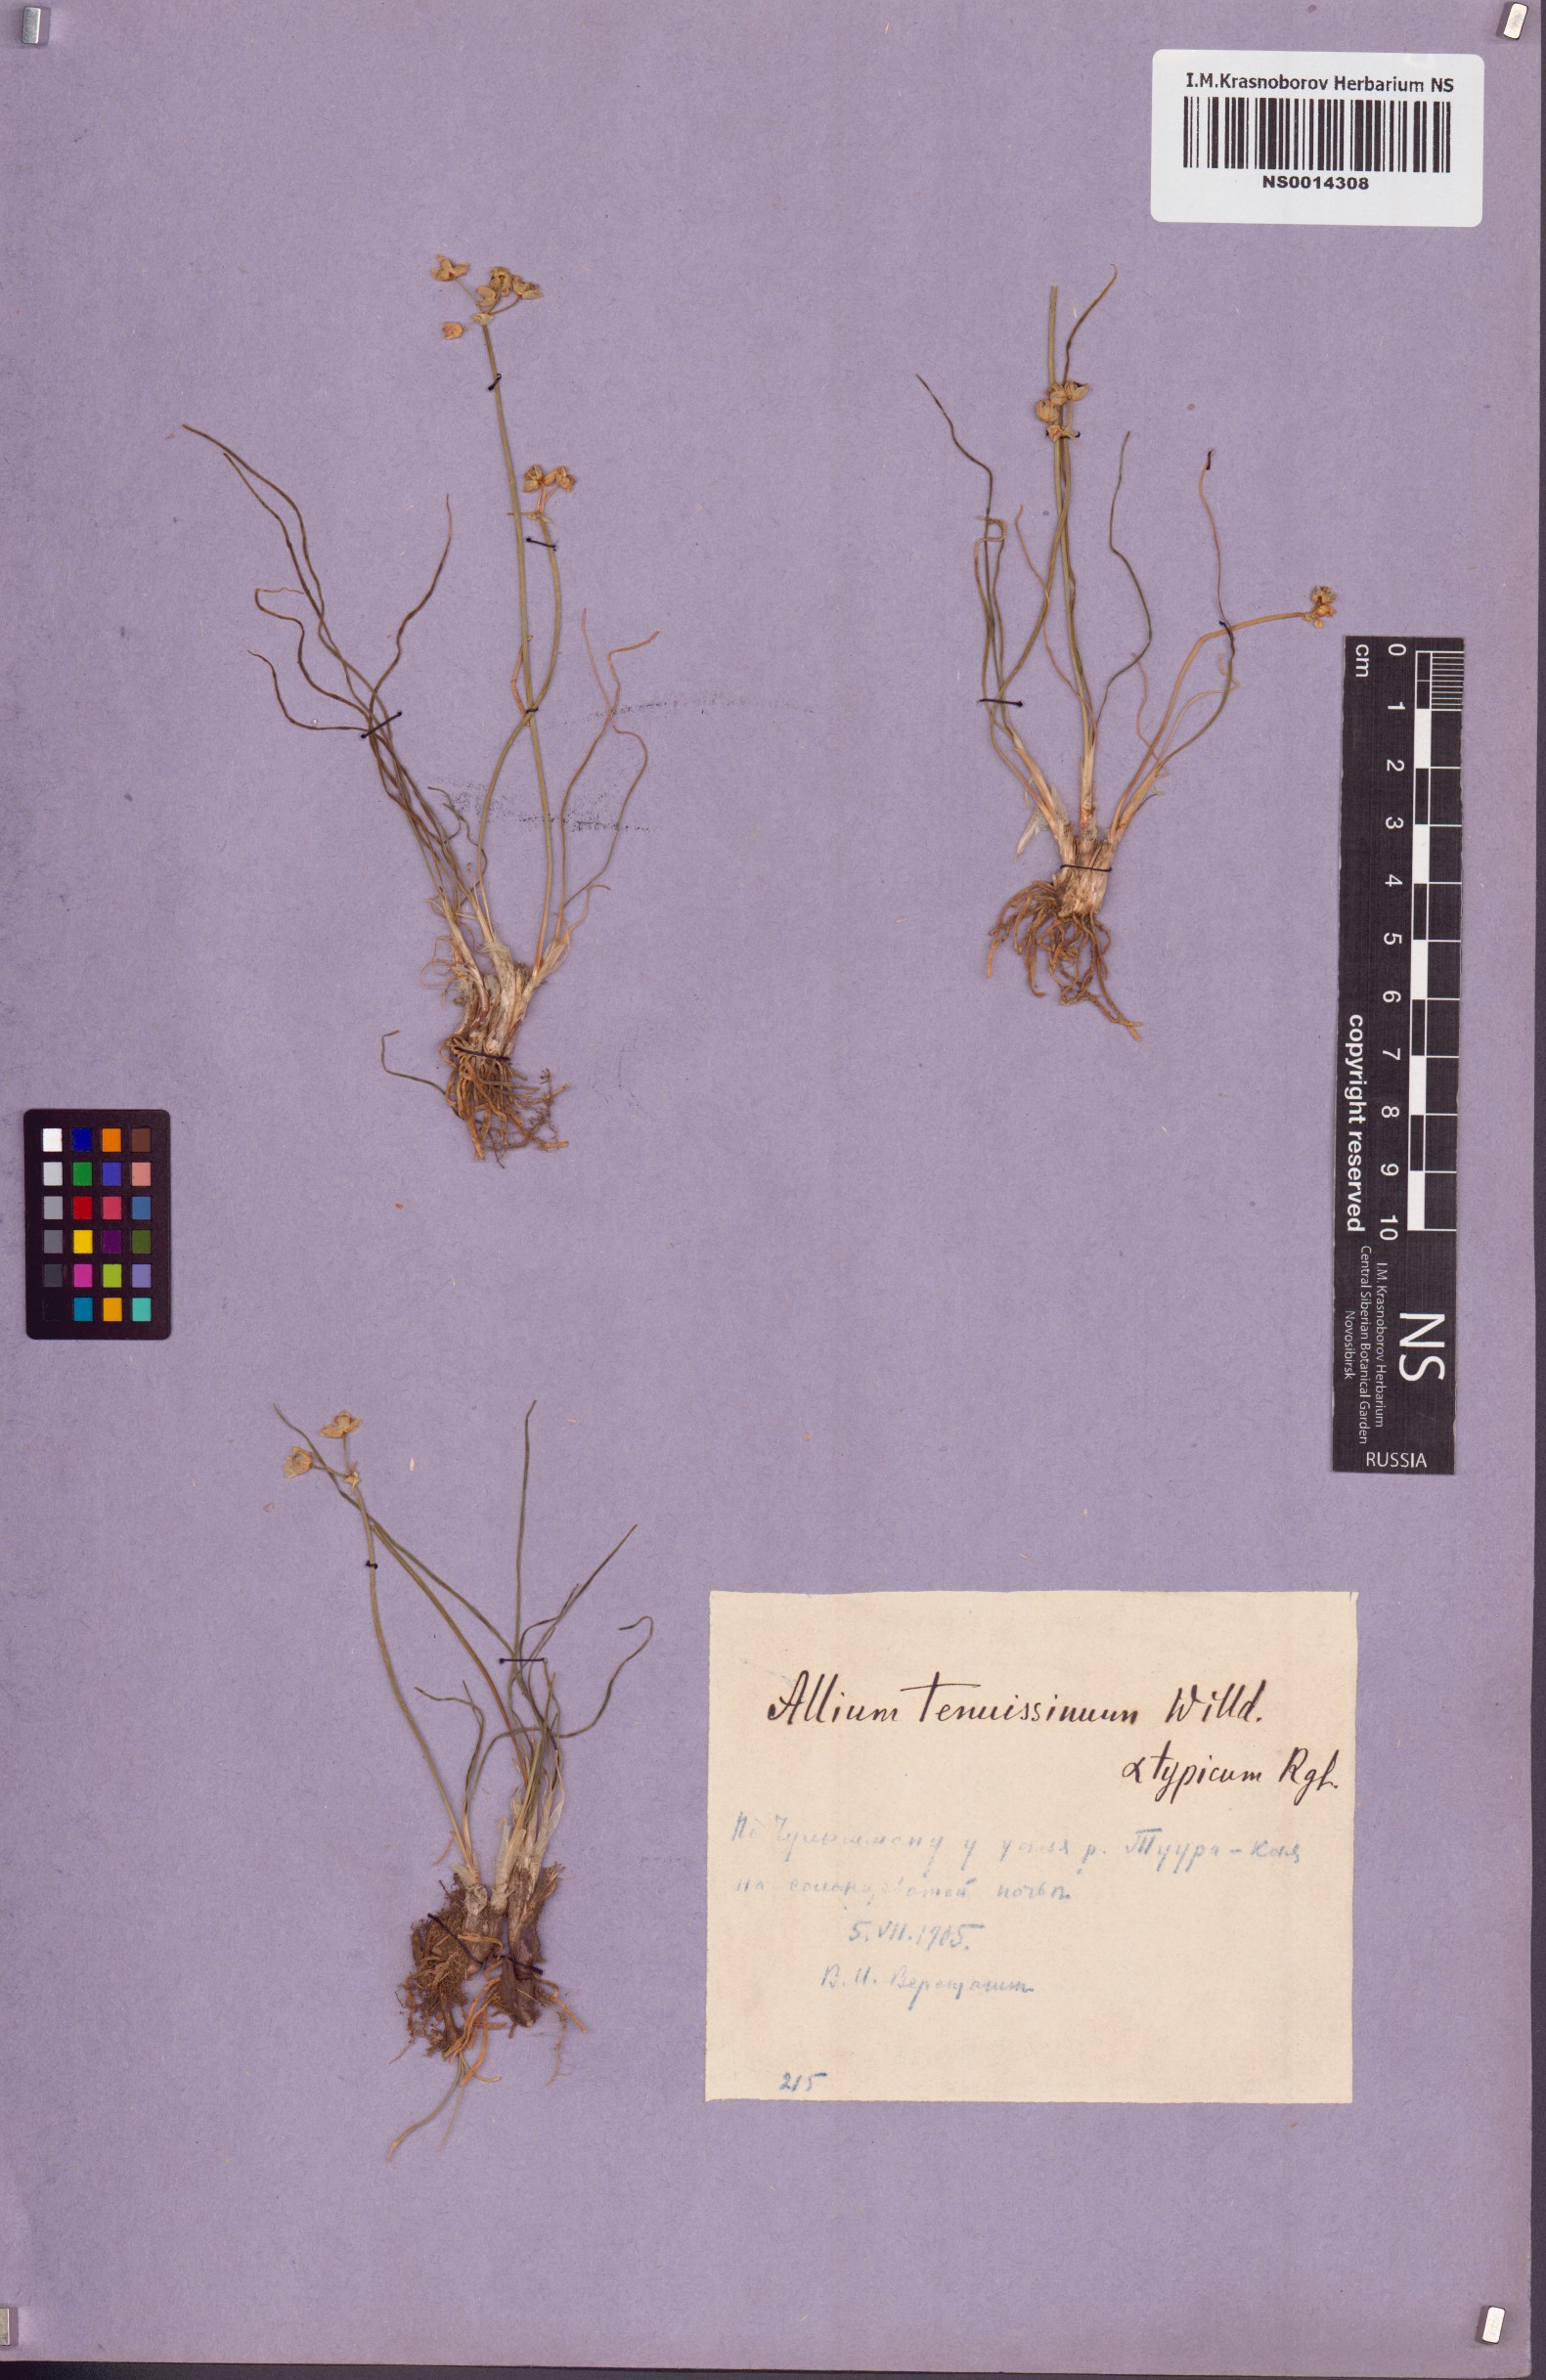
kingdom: Plantae
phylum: Tracheophyta
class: Liliopsida
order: Asparagales
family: Amaryllidaceae
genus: Allium
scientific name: Allium tenuissimum
